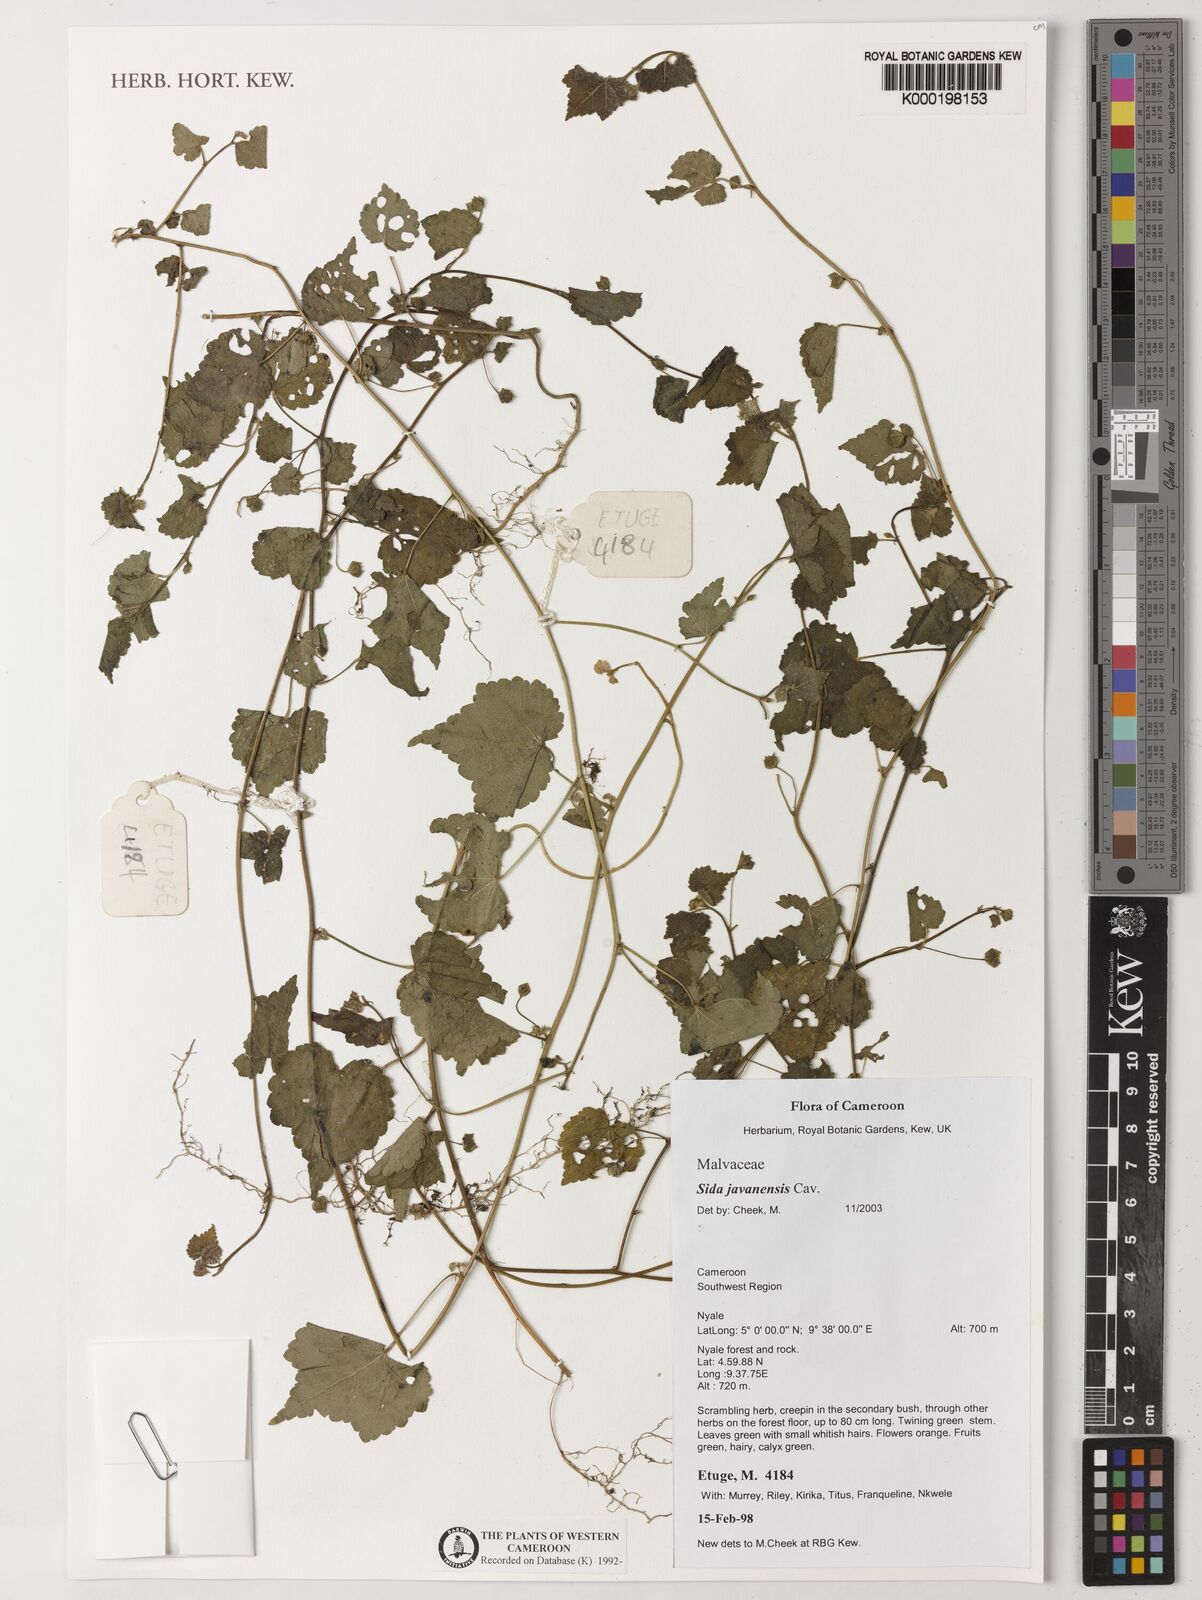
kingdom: Plantae
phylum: Tracheophyta
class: Magnoliopsida
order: Malvales
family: Malvaceae
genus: Sida
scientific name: Sida
